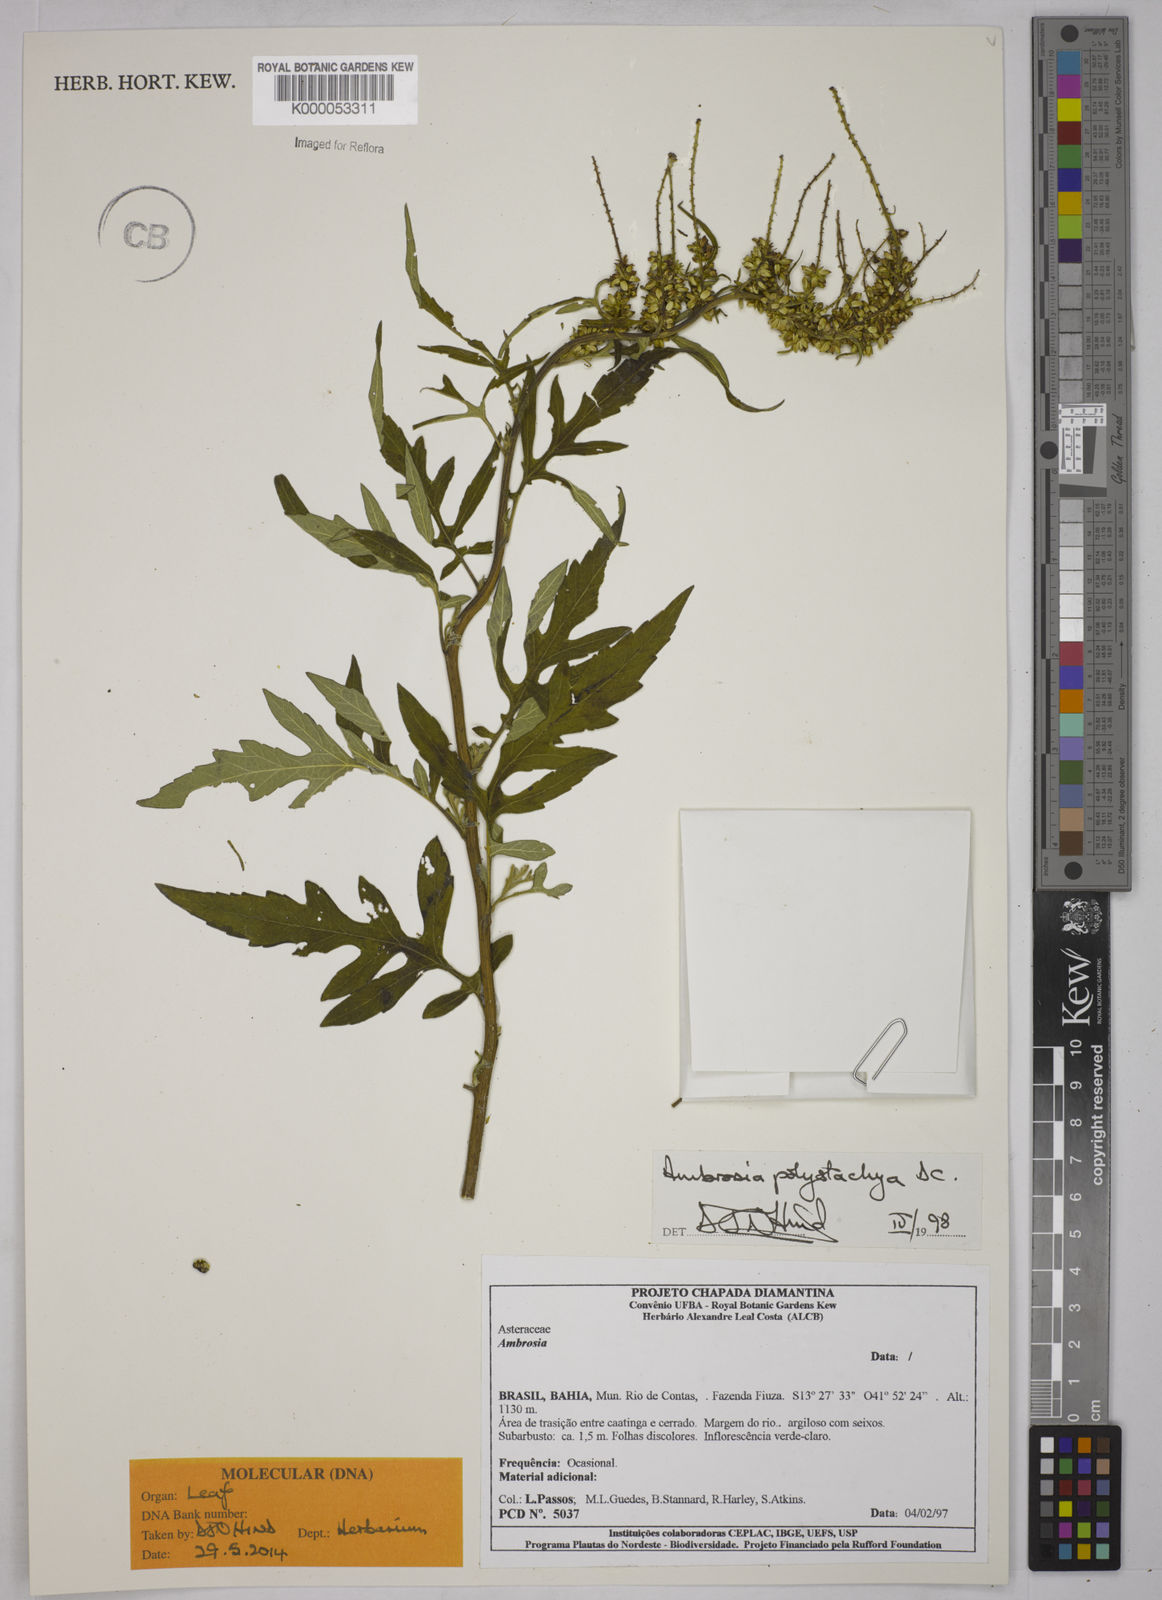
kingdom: Plantae
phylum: Tracheophyta
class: Magnoliopsida
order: Asterales
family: Asteraceae
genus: Ambrosia
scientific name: Ambrosia polystachya
